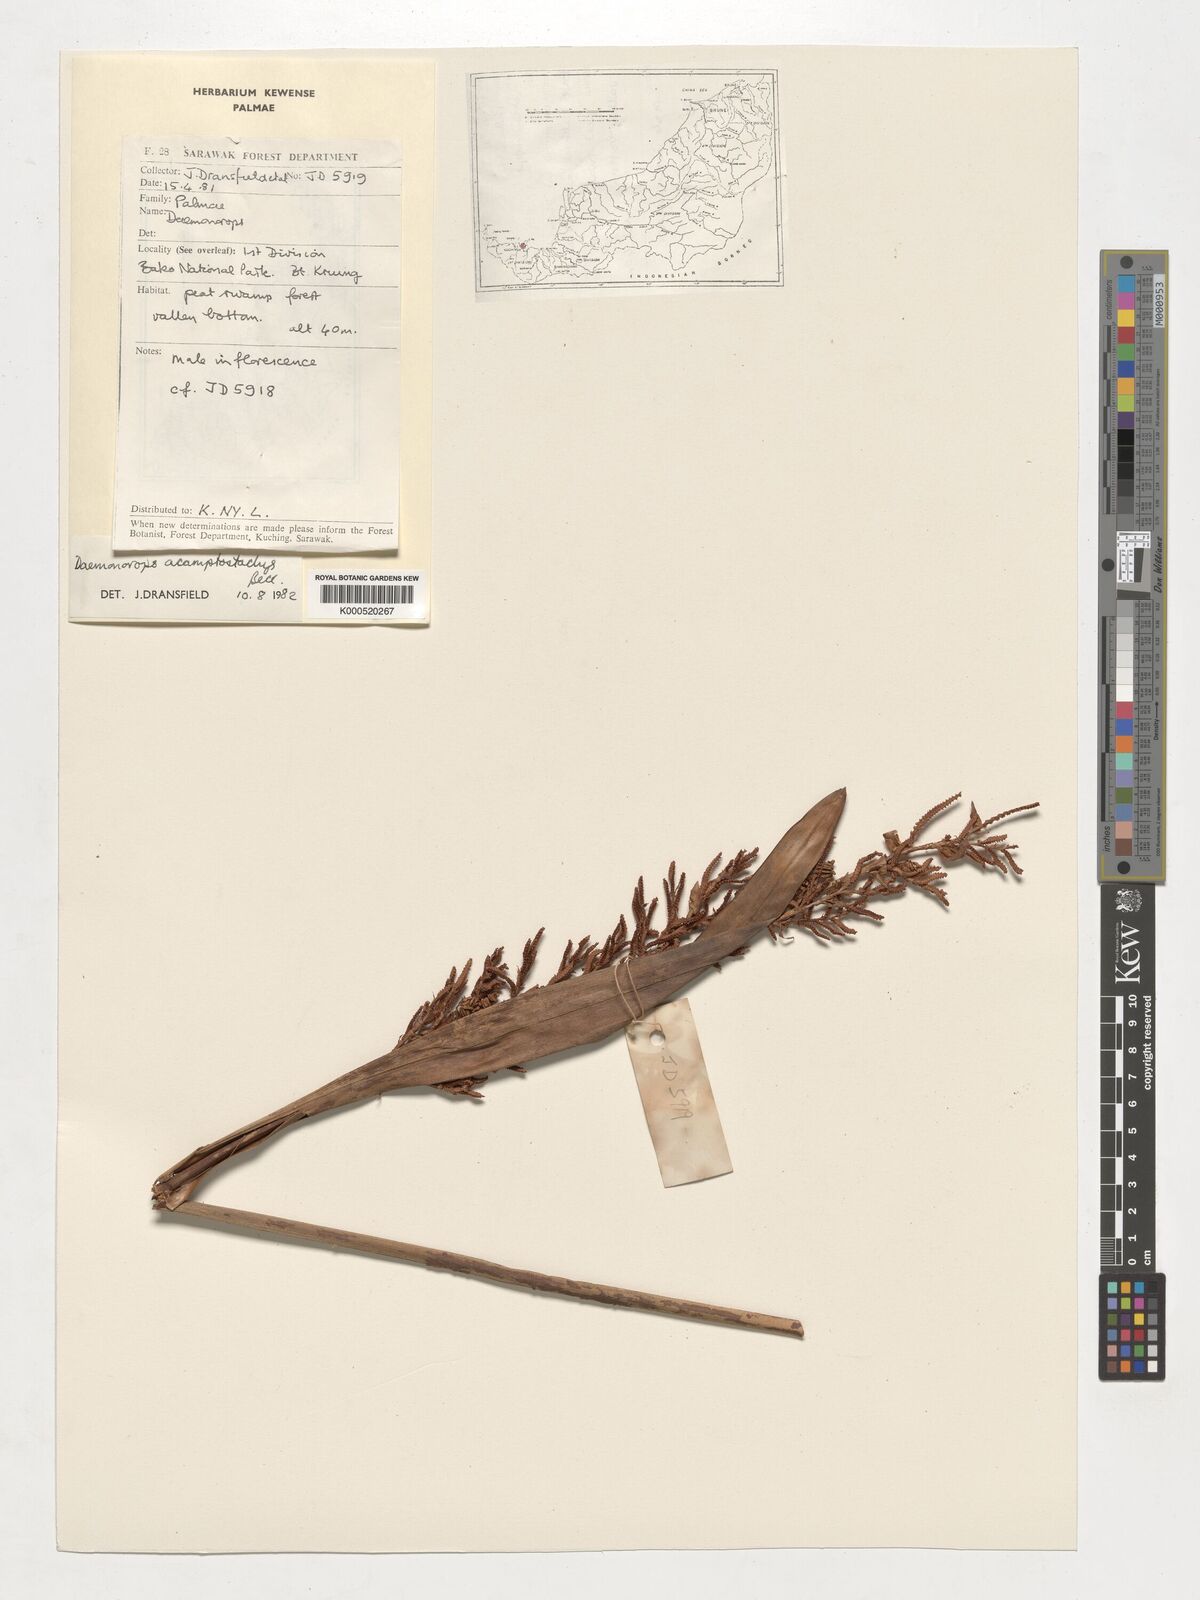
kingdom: Plantae
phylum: Tracheophyta
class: Liliopsida
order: Arecales
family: Arecaceae
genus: Calamus
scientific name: Calamus acamptostachys
